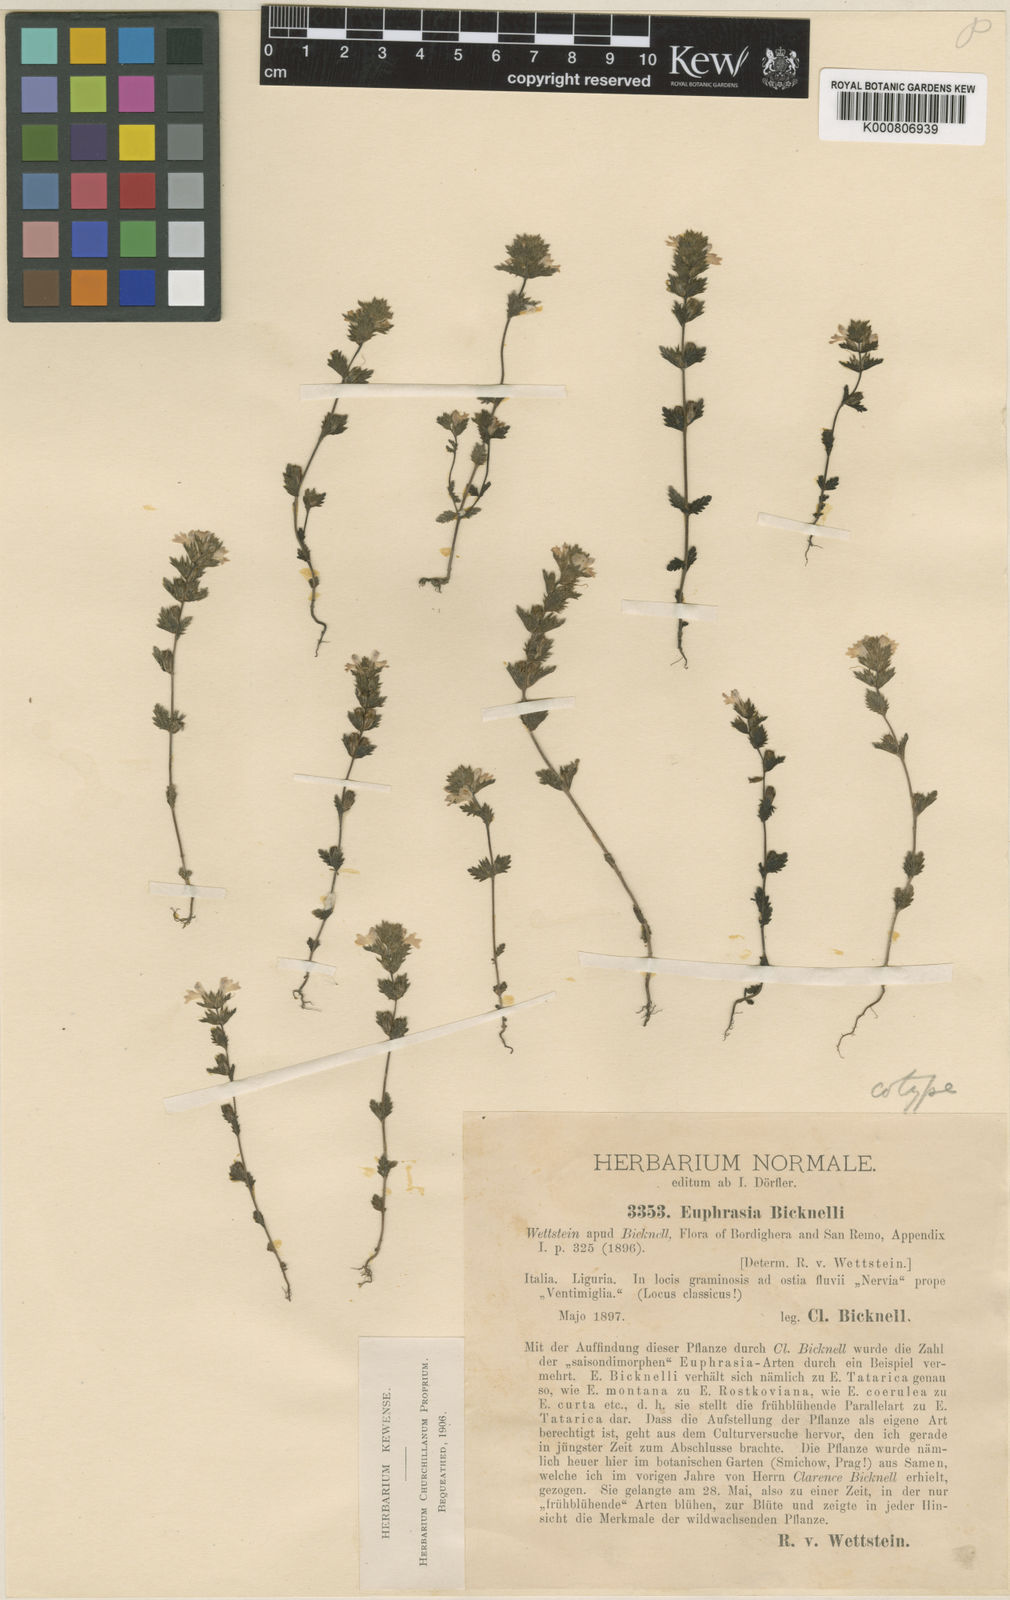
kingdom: Plantae
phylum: Tracheophyta
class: Magnoliopsida
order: Lamiales
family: Orobanchaceae
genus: Euphrasia
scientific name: Euphrasia pectinata
